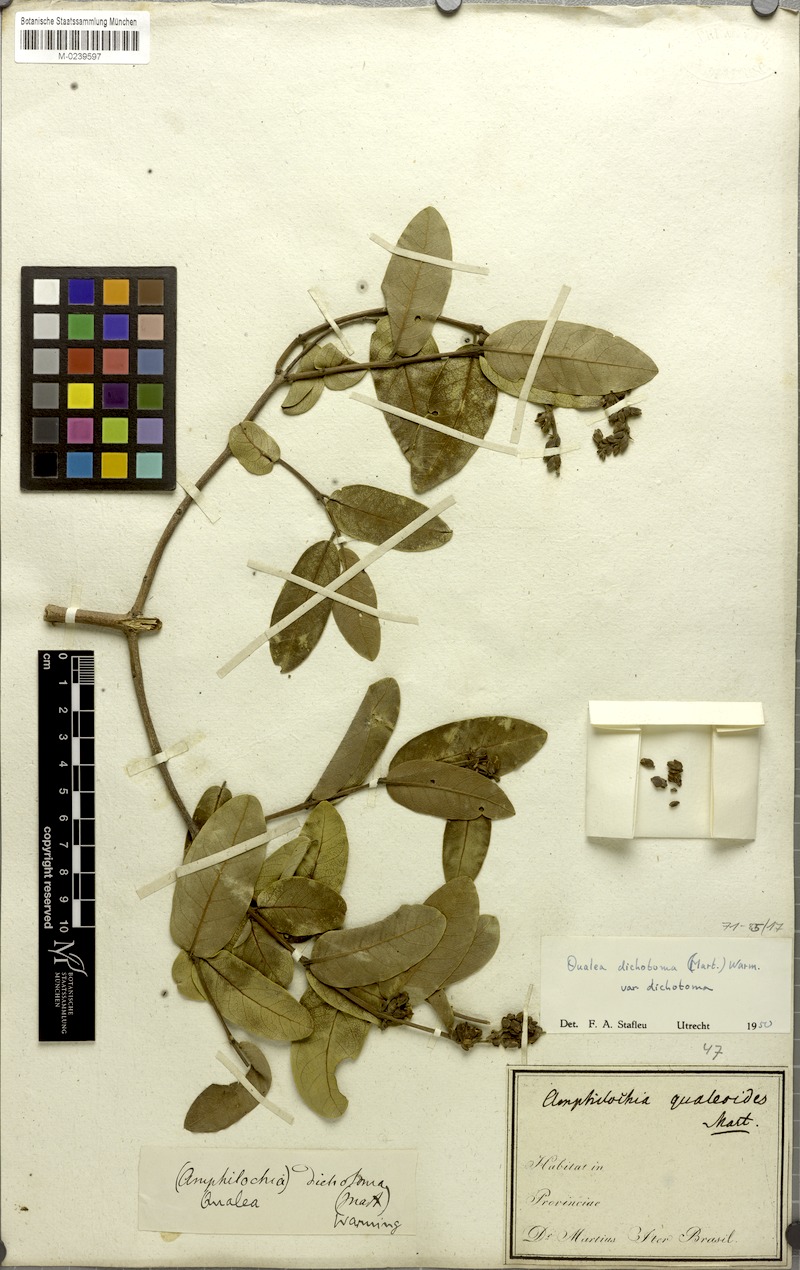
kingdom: Plantae
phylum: Tracheophyta
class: Magnoliopsida
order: Myrtales
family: Vochysiaceae
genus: Qualea
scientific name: Qualea cordata
